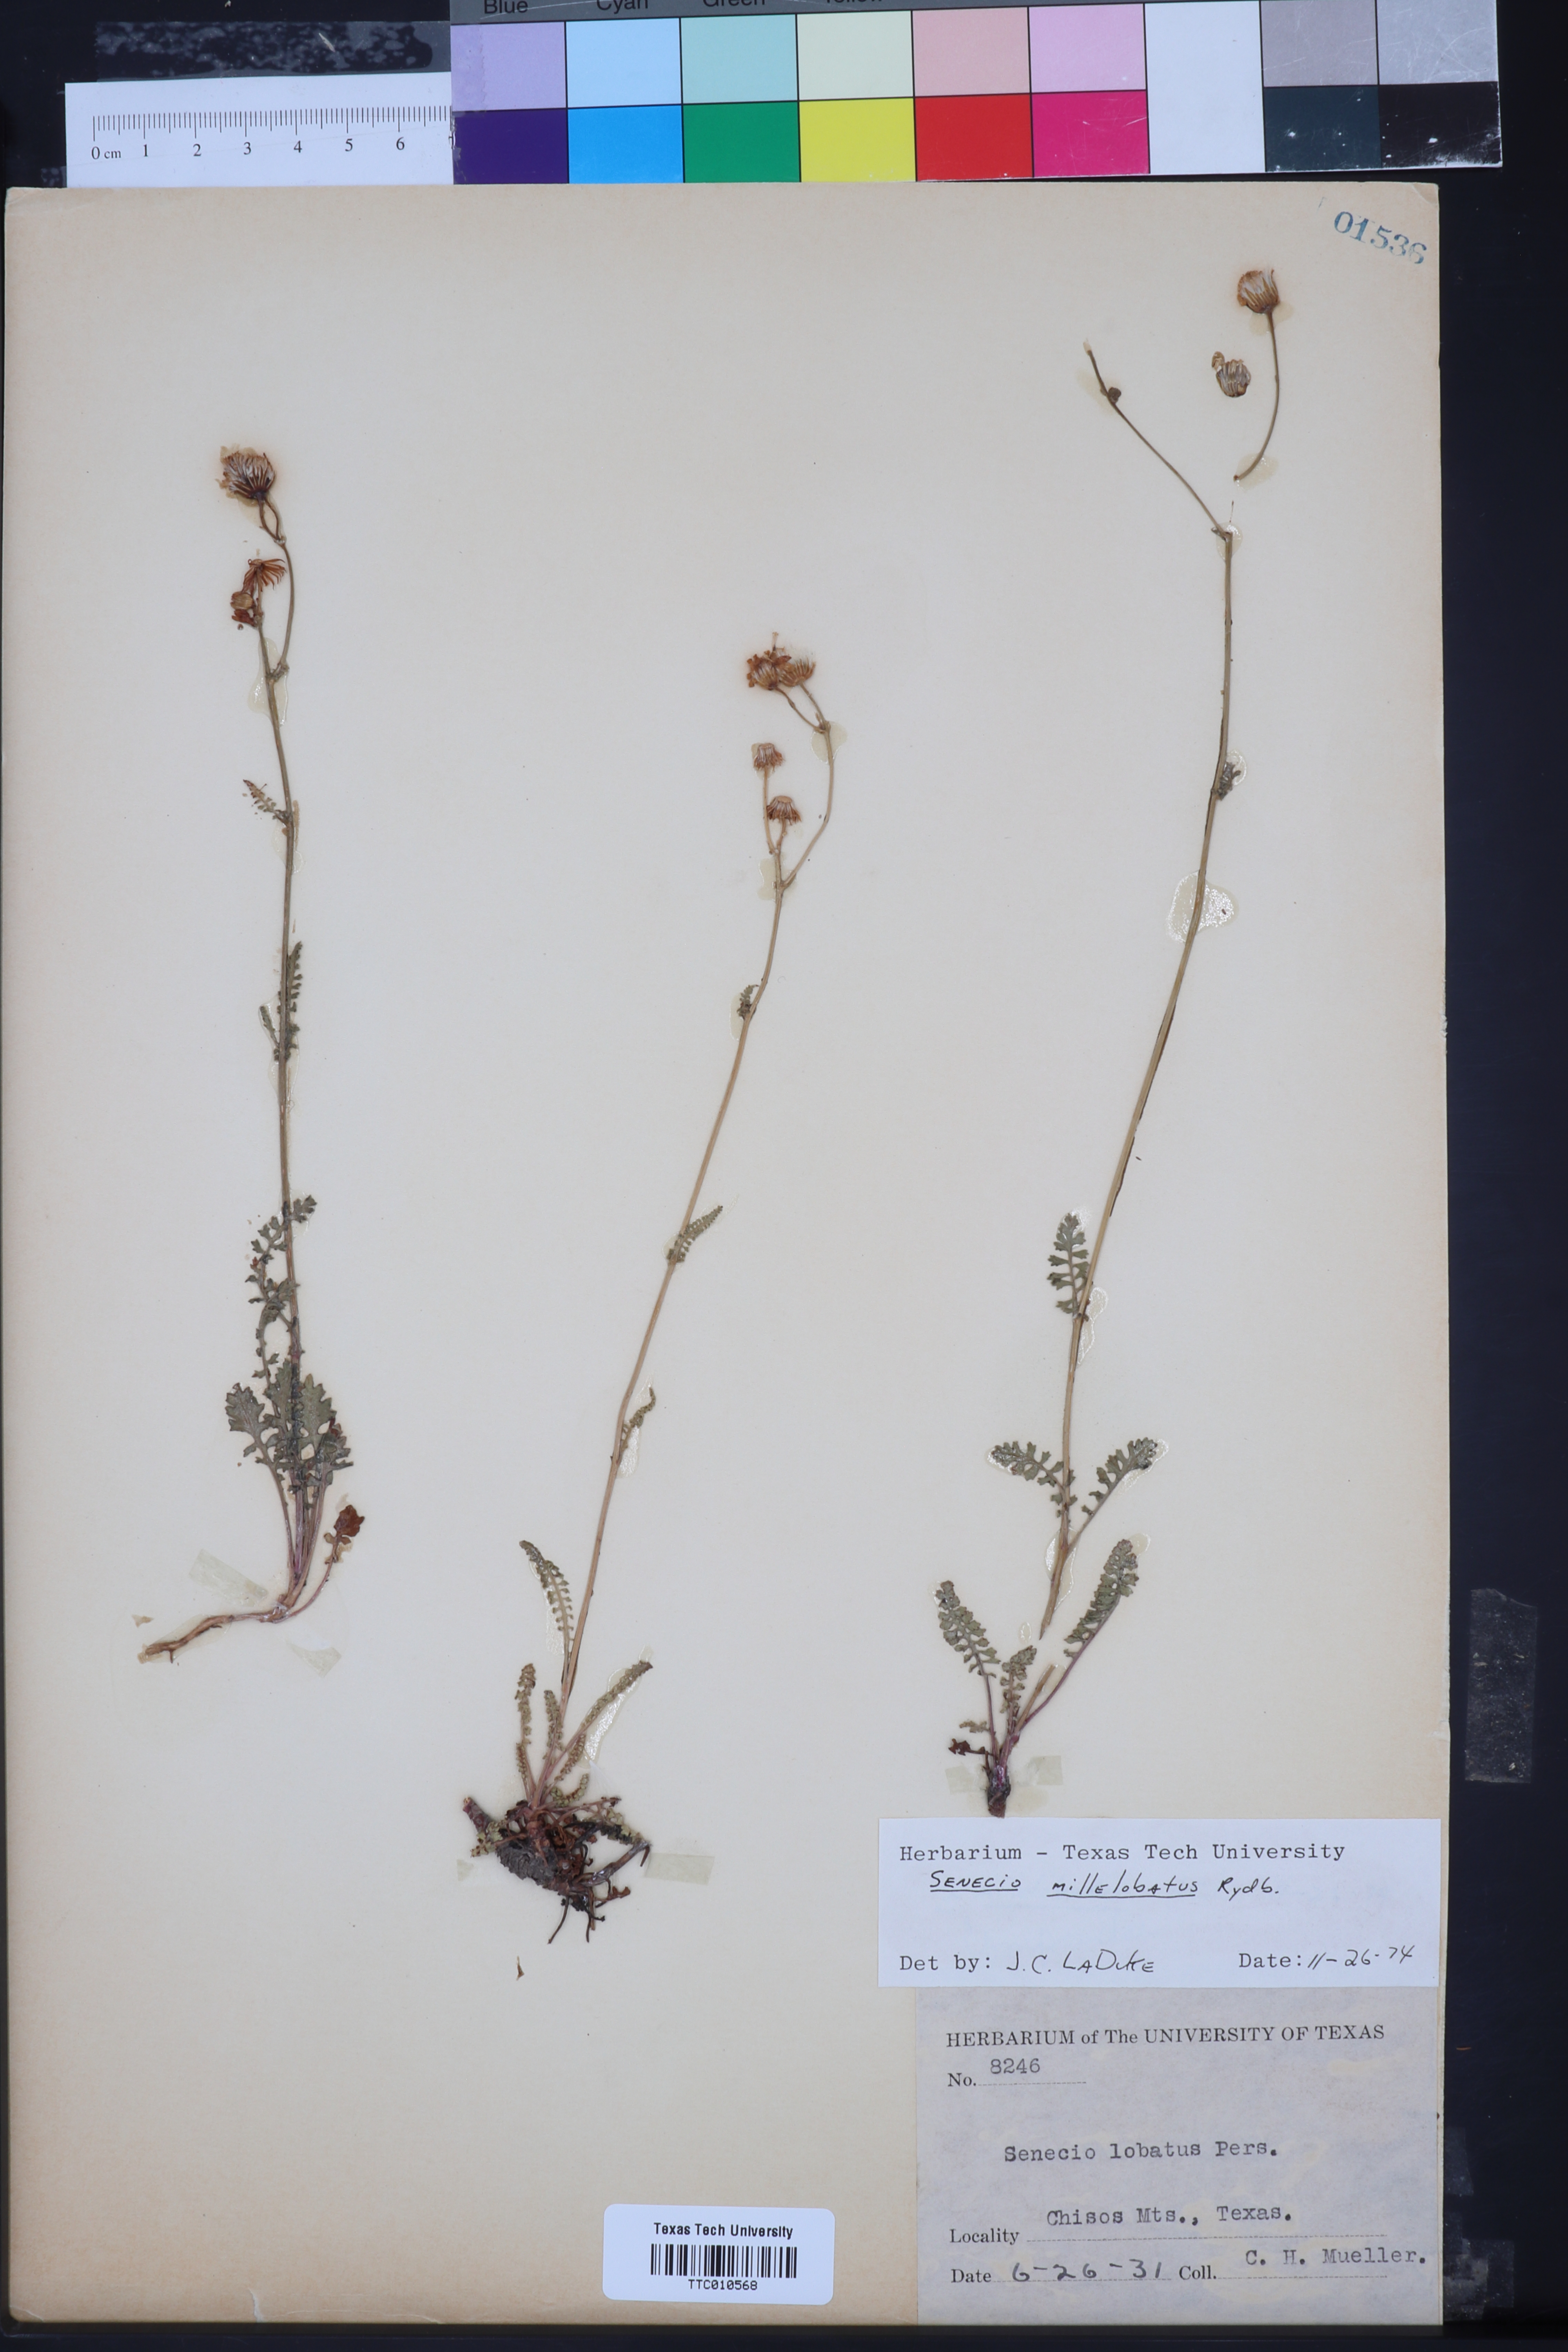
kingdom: Plantae
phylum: Tracheophyta
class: Magnoliopsida
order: Asterales
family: Asteraceae
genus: Packera
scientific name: Packera millelobata
